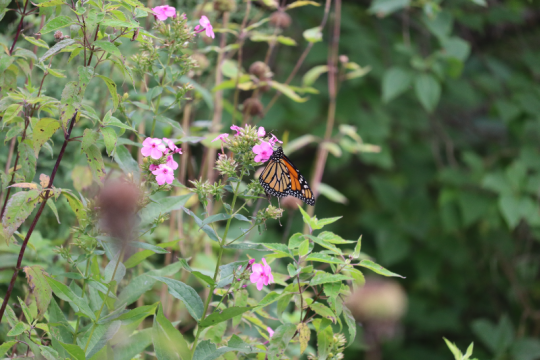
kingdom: Animalia
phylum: Arthropoda
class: Insecta
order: Lepidoptera
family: Nymphalidae
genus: Danaus
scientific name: Danaus plexippus
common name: Monarch
